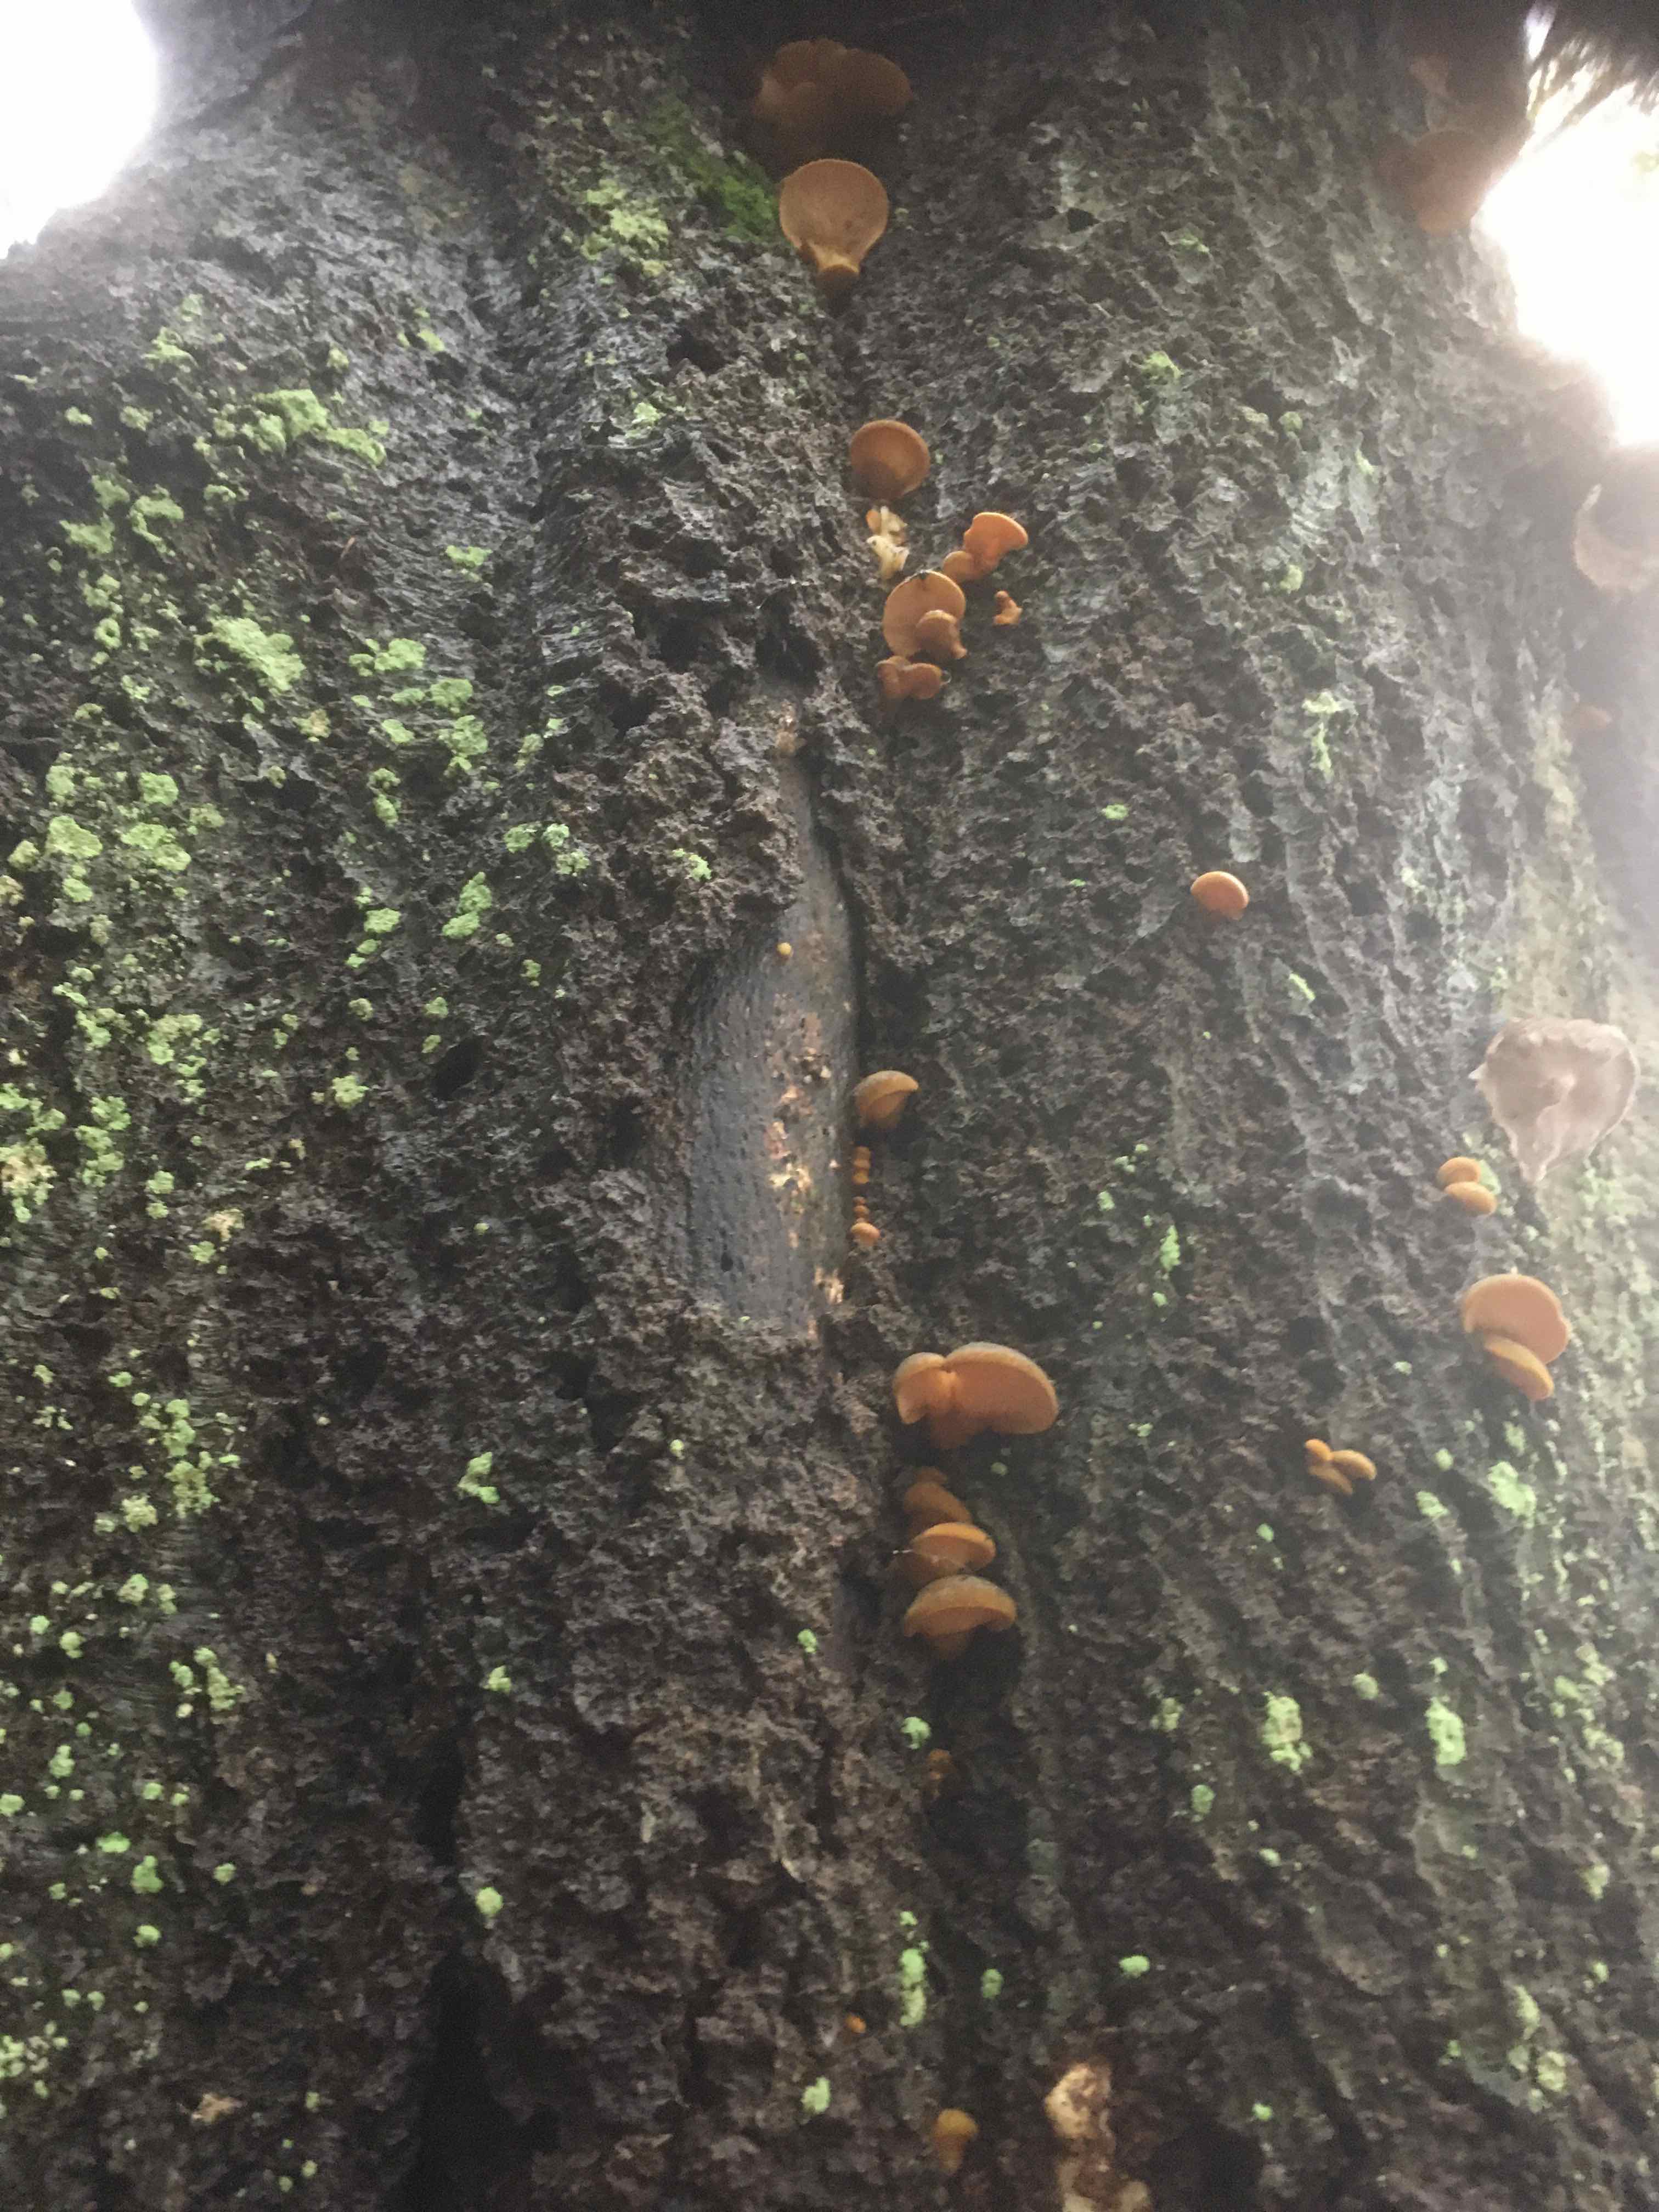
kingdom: Fungi
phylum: Basidiomycota
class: Agaricomycetes
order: Agaricales
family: Sarcomyxaceae
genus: Sarcomyxa
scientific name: Sarcomyxa serotina
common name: gummihat
